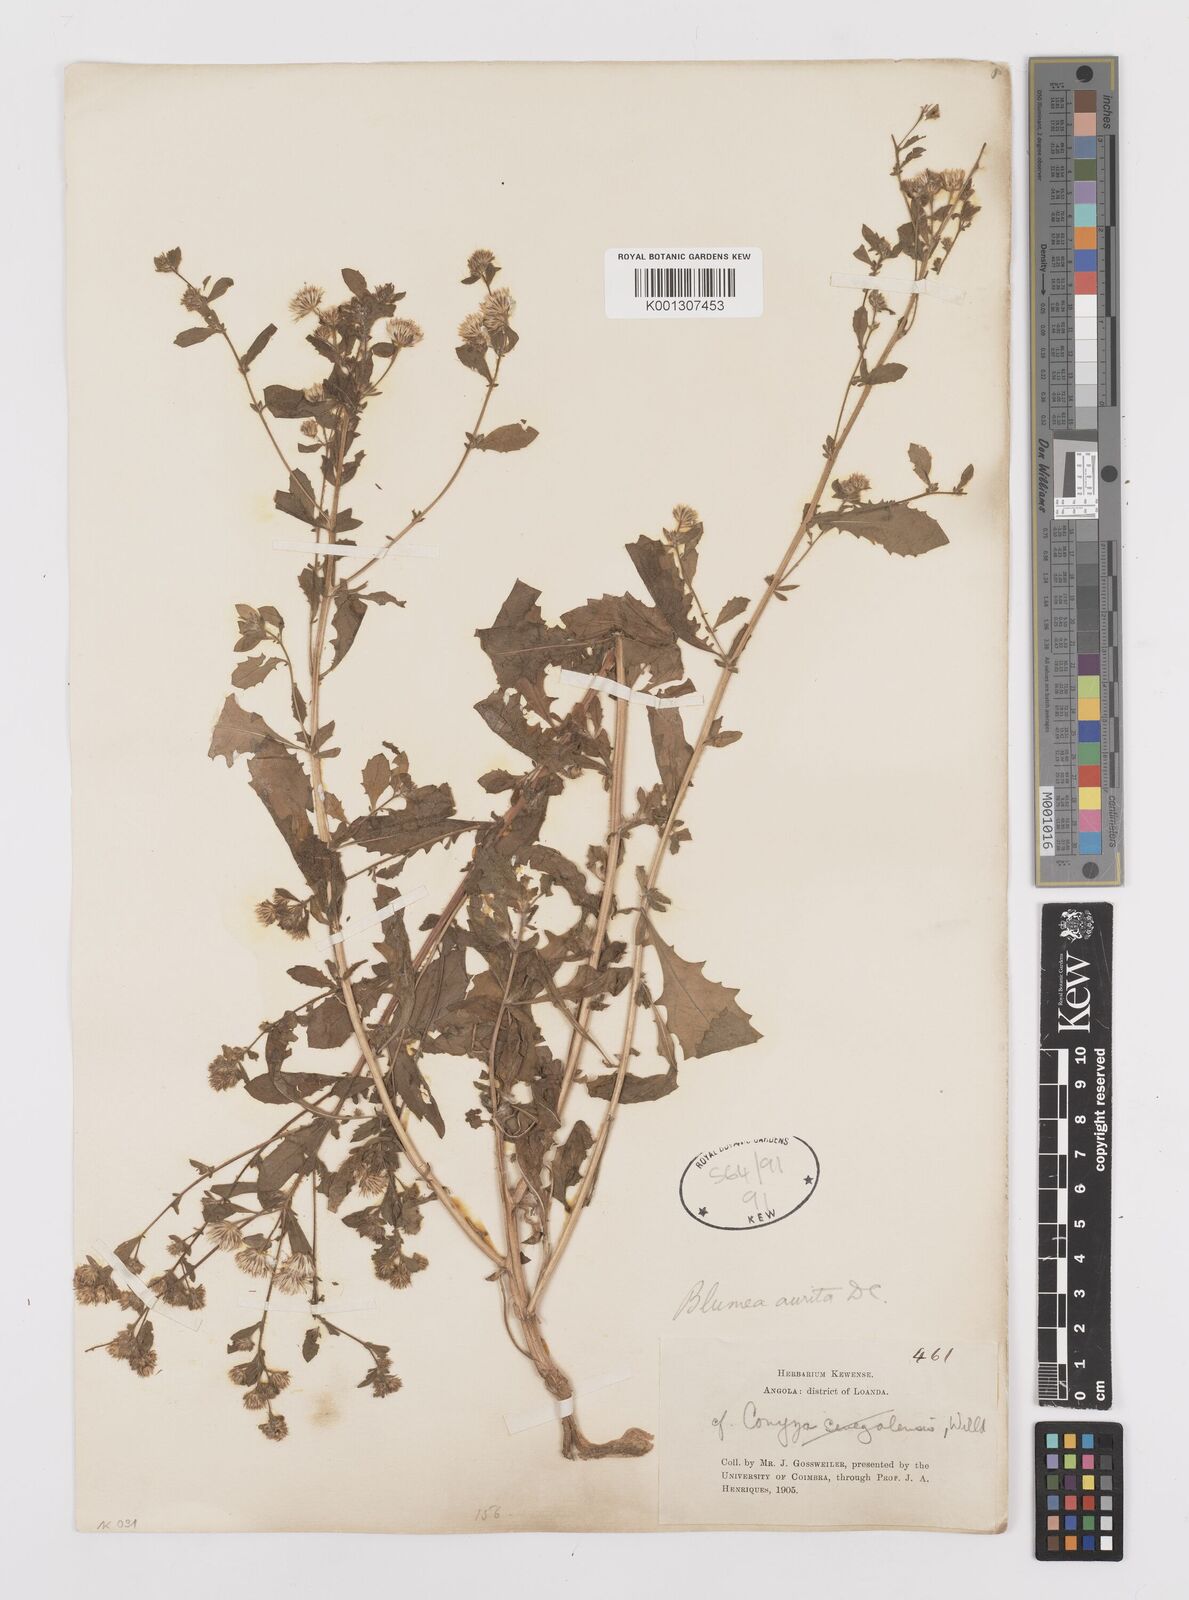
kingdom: Plantae
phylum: Tracheophyta
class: Magnoliopsida
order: Asterales
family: Asteraceae
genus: Pseudoconyza
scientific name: Pseudoconyza viscosa
